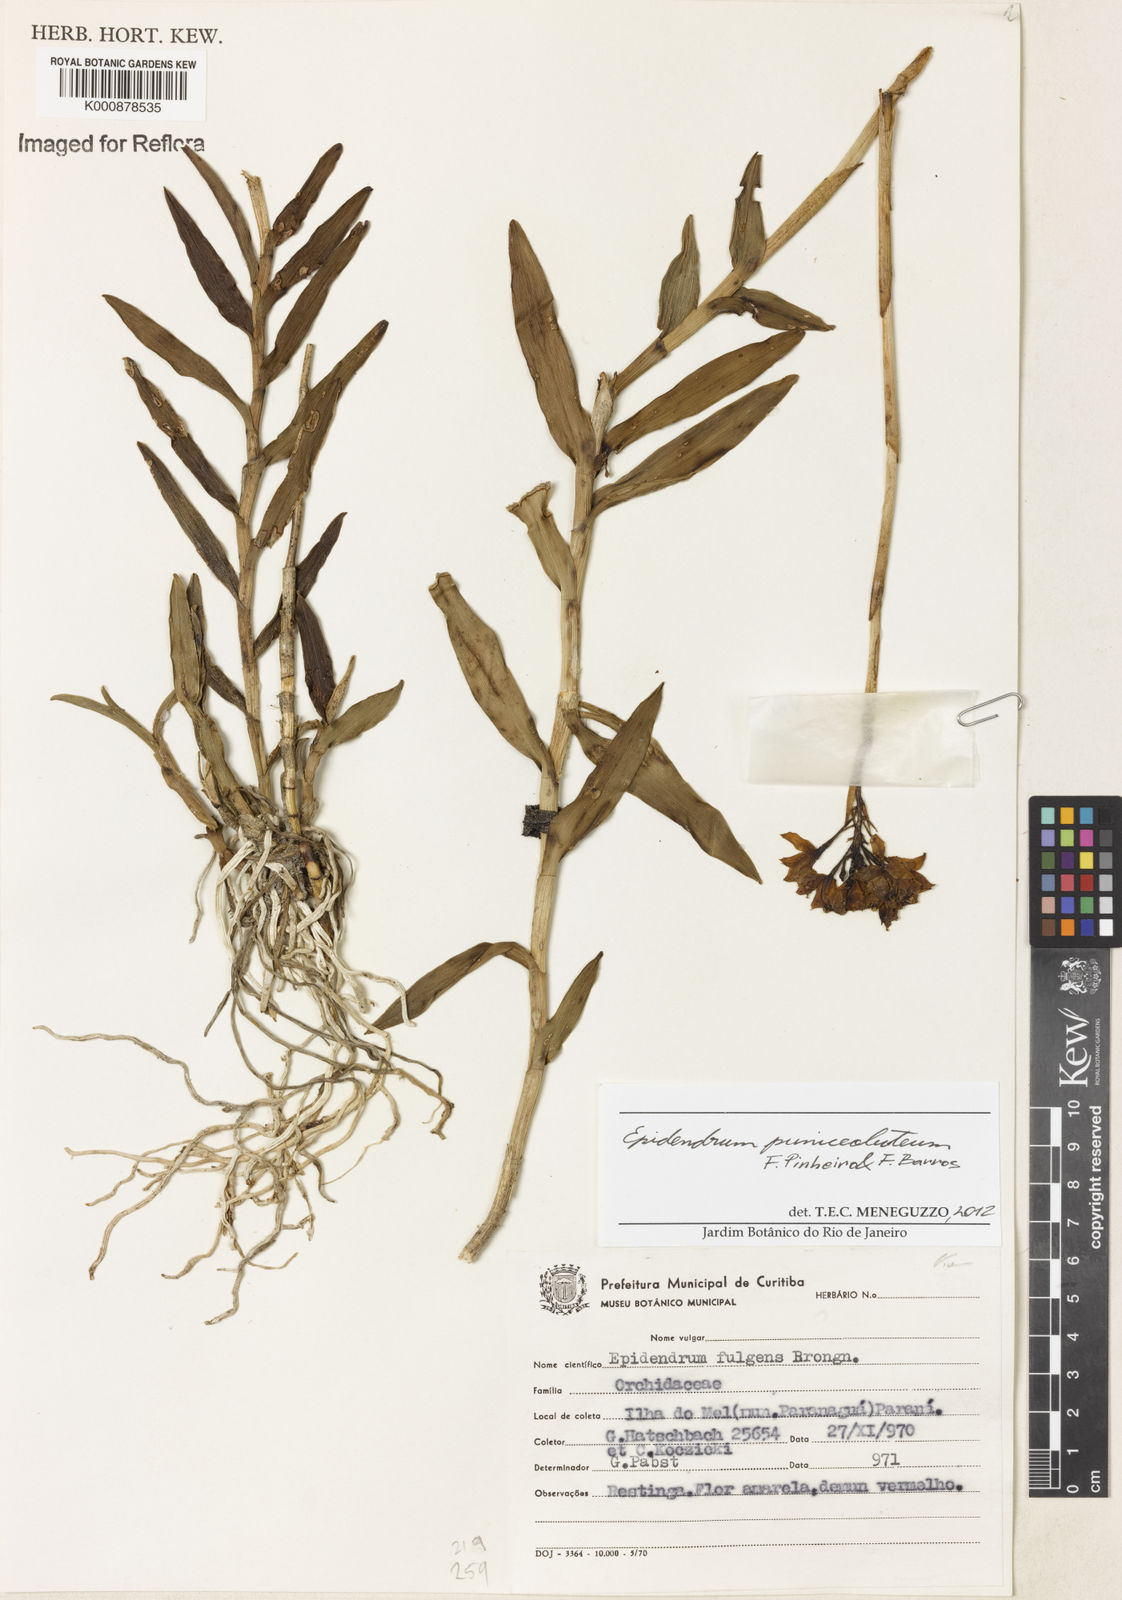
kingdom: Plantae
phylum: Tracheophyta
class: Liliopsida
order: Asparagales
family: Orchidaceae
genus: Epidendrum
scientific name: Epidendrum puniceoluteum
